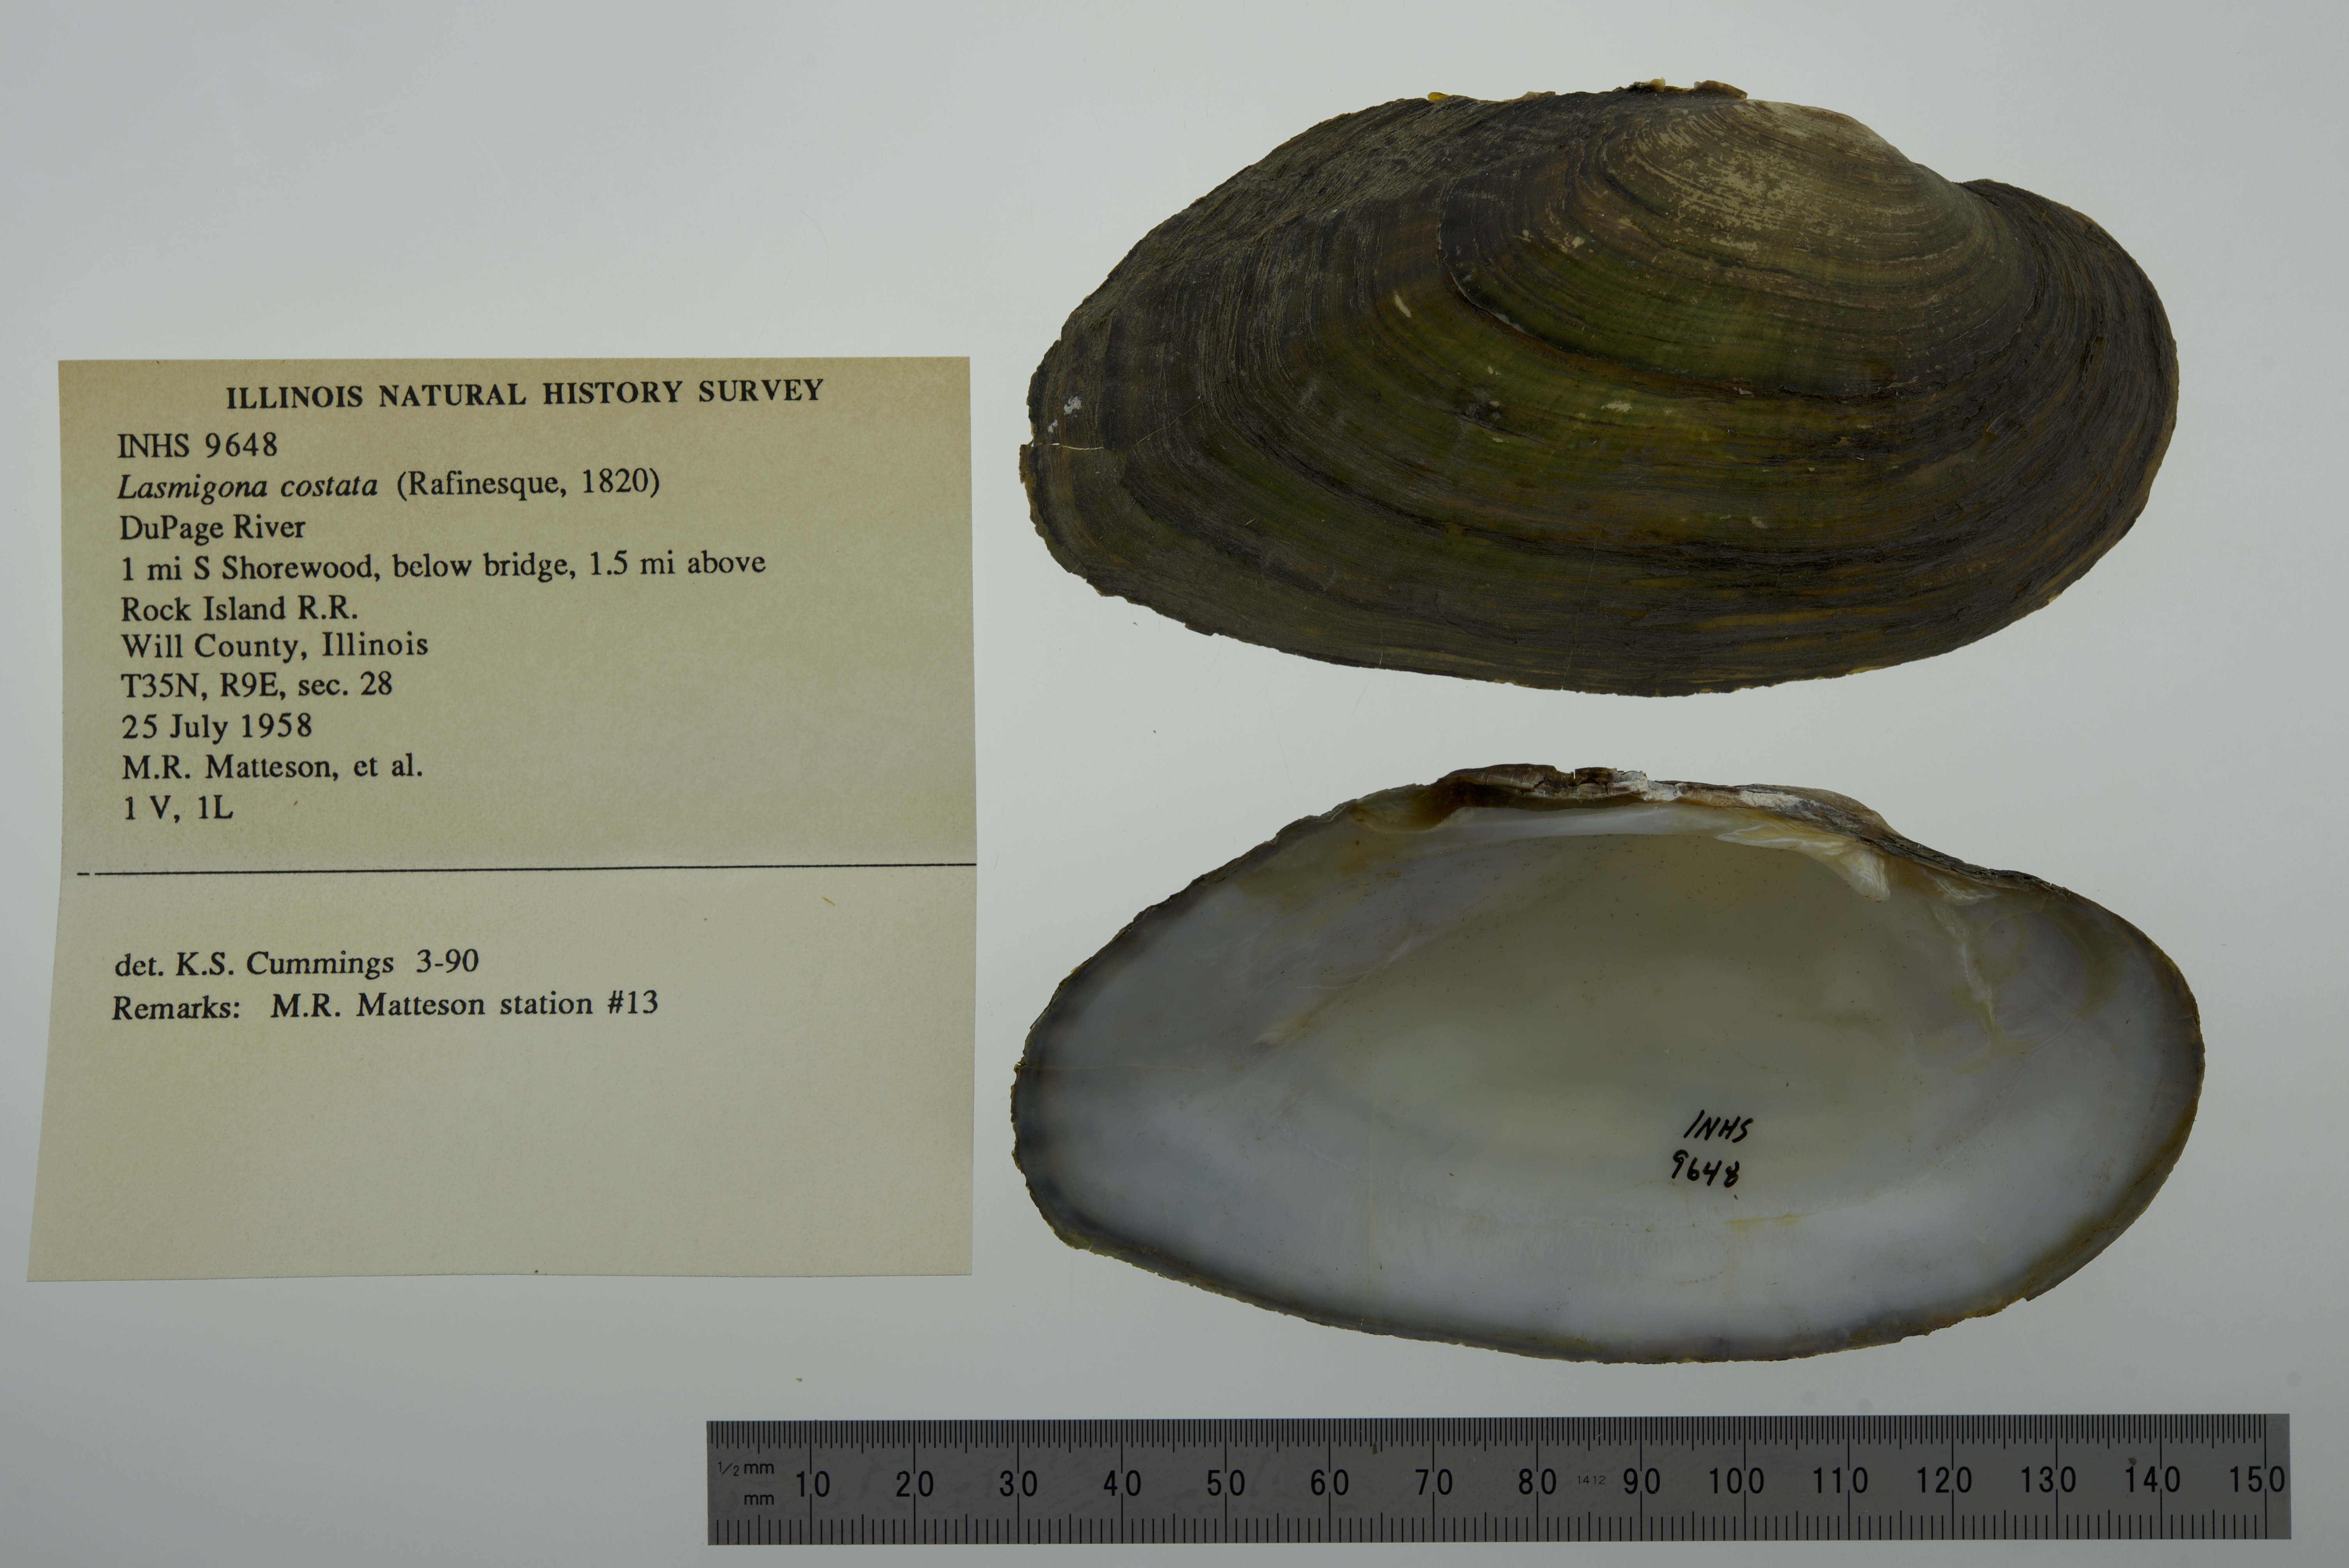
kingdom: Animalia
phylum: Mollusca
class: Bivalvia
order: Unionida
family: Unionidae
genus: Lasmigona
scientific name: Lasmigona costata
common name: Flutedshell
